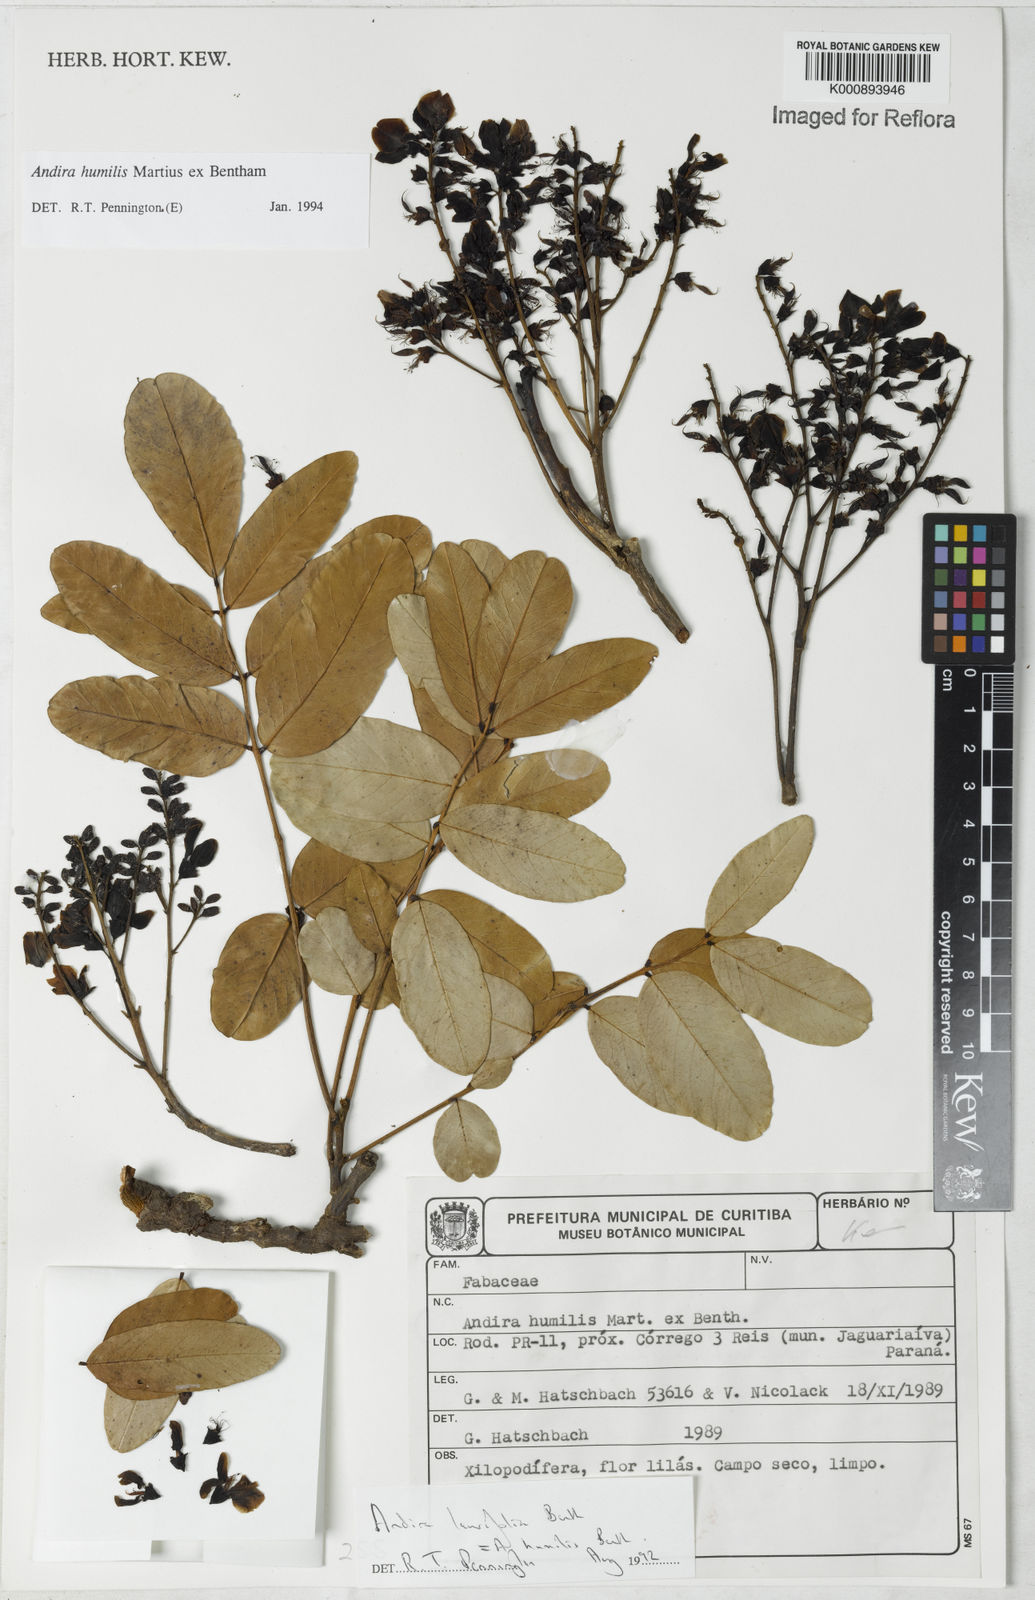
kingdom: Plantae
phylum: Tracheophyta
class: Magnoliopsida
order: Fabales
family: Fabaceae
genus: Andira
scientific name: Andira humilis
